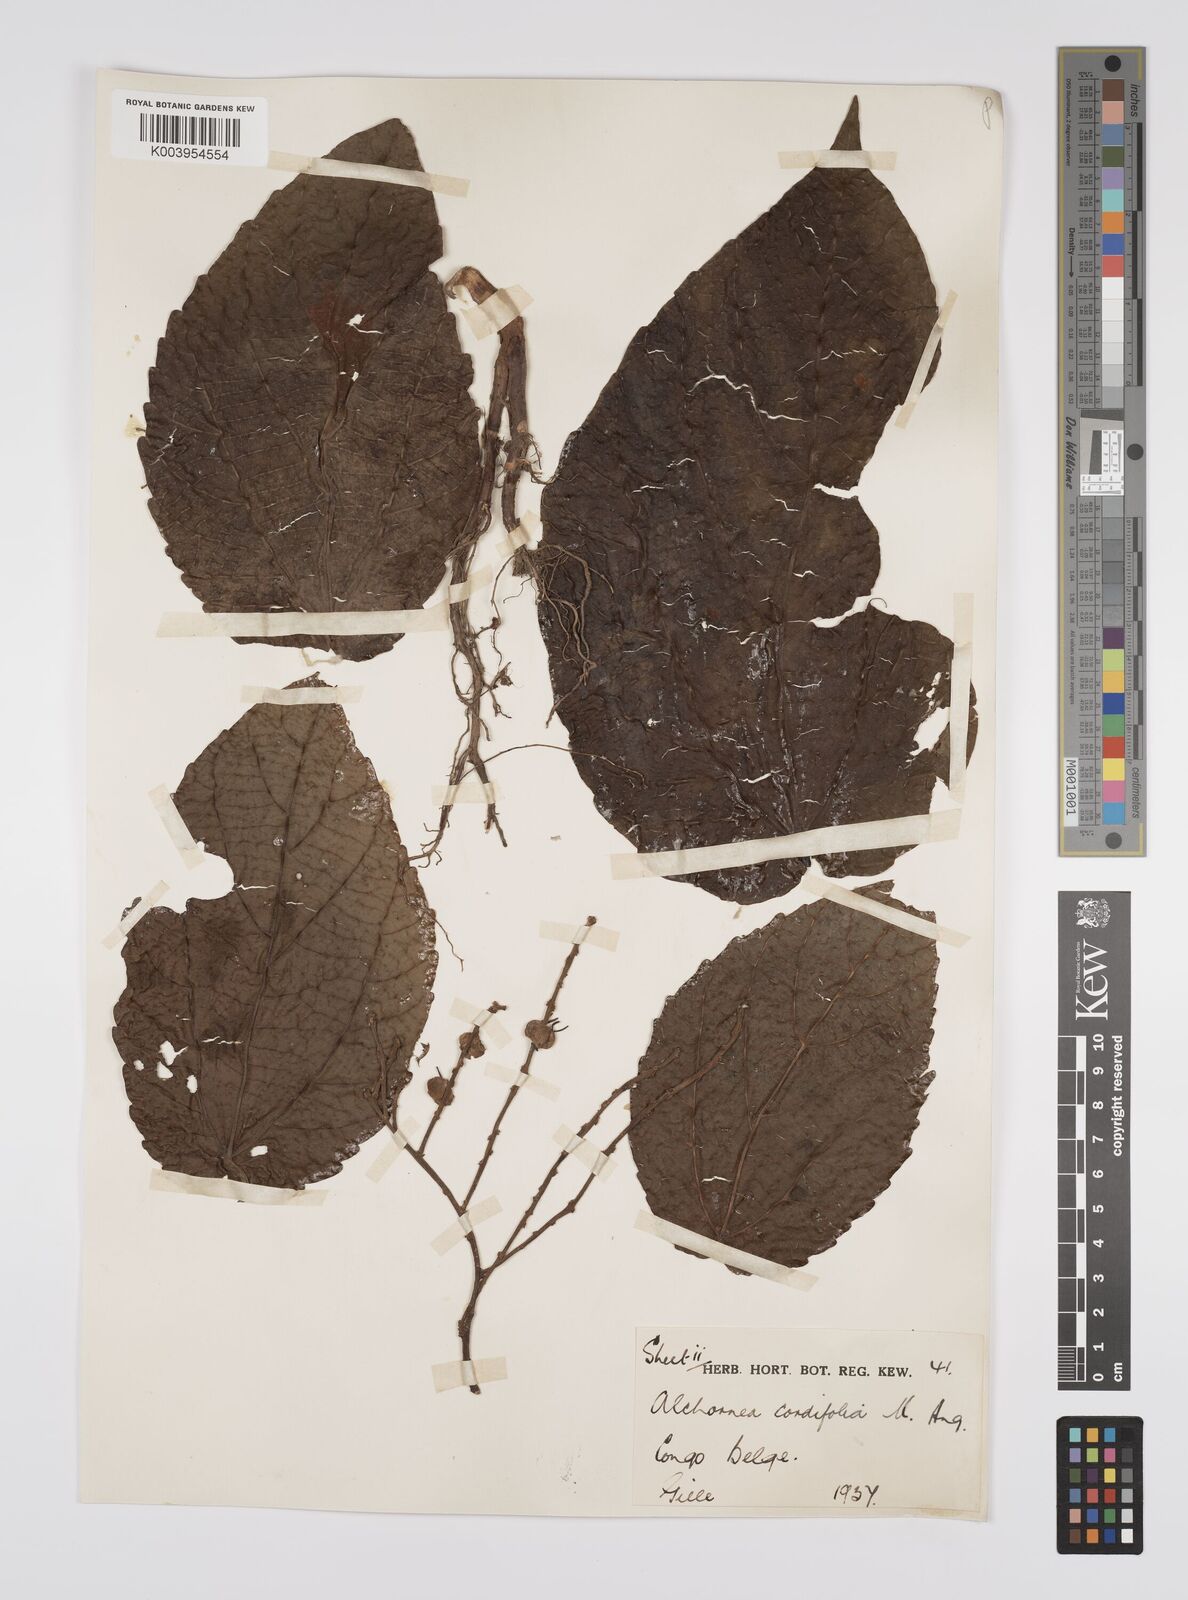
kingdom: Plantae
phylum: Tracheophyta
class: Magnoliopsida
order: Malpighiales
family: Euphorbiaceae
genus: Alchornea
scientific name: Alchornea cordifolia
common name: Christmasbush
